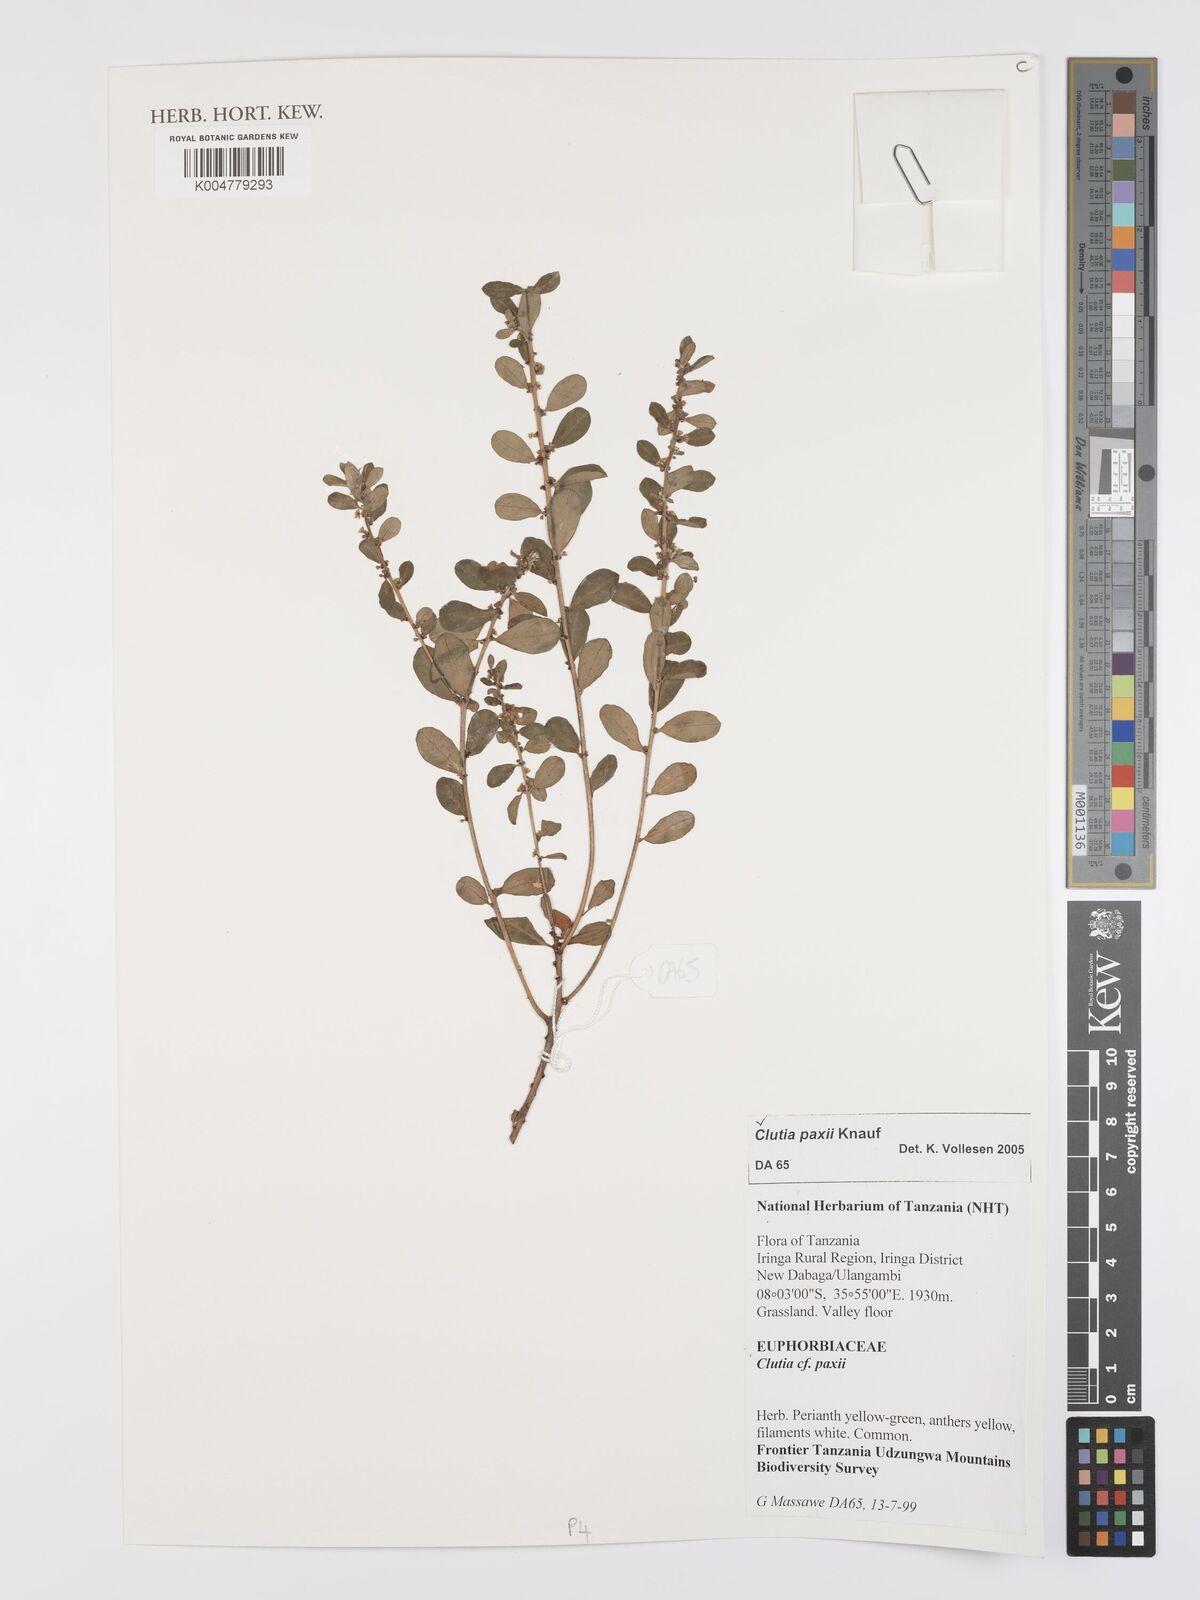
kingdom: Plantae
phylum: Tracheophyta
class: Magnoliopsida
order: Malpighiales
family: Peraceae
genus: Clutia
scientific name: Clutia paxii
